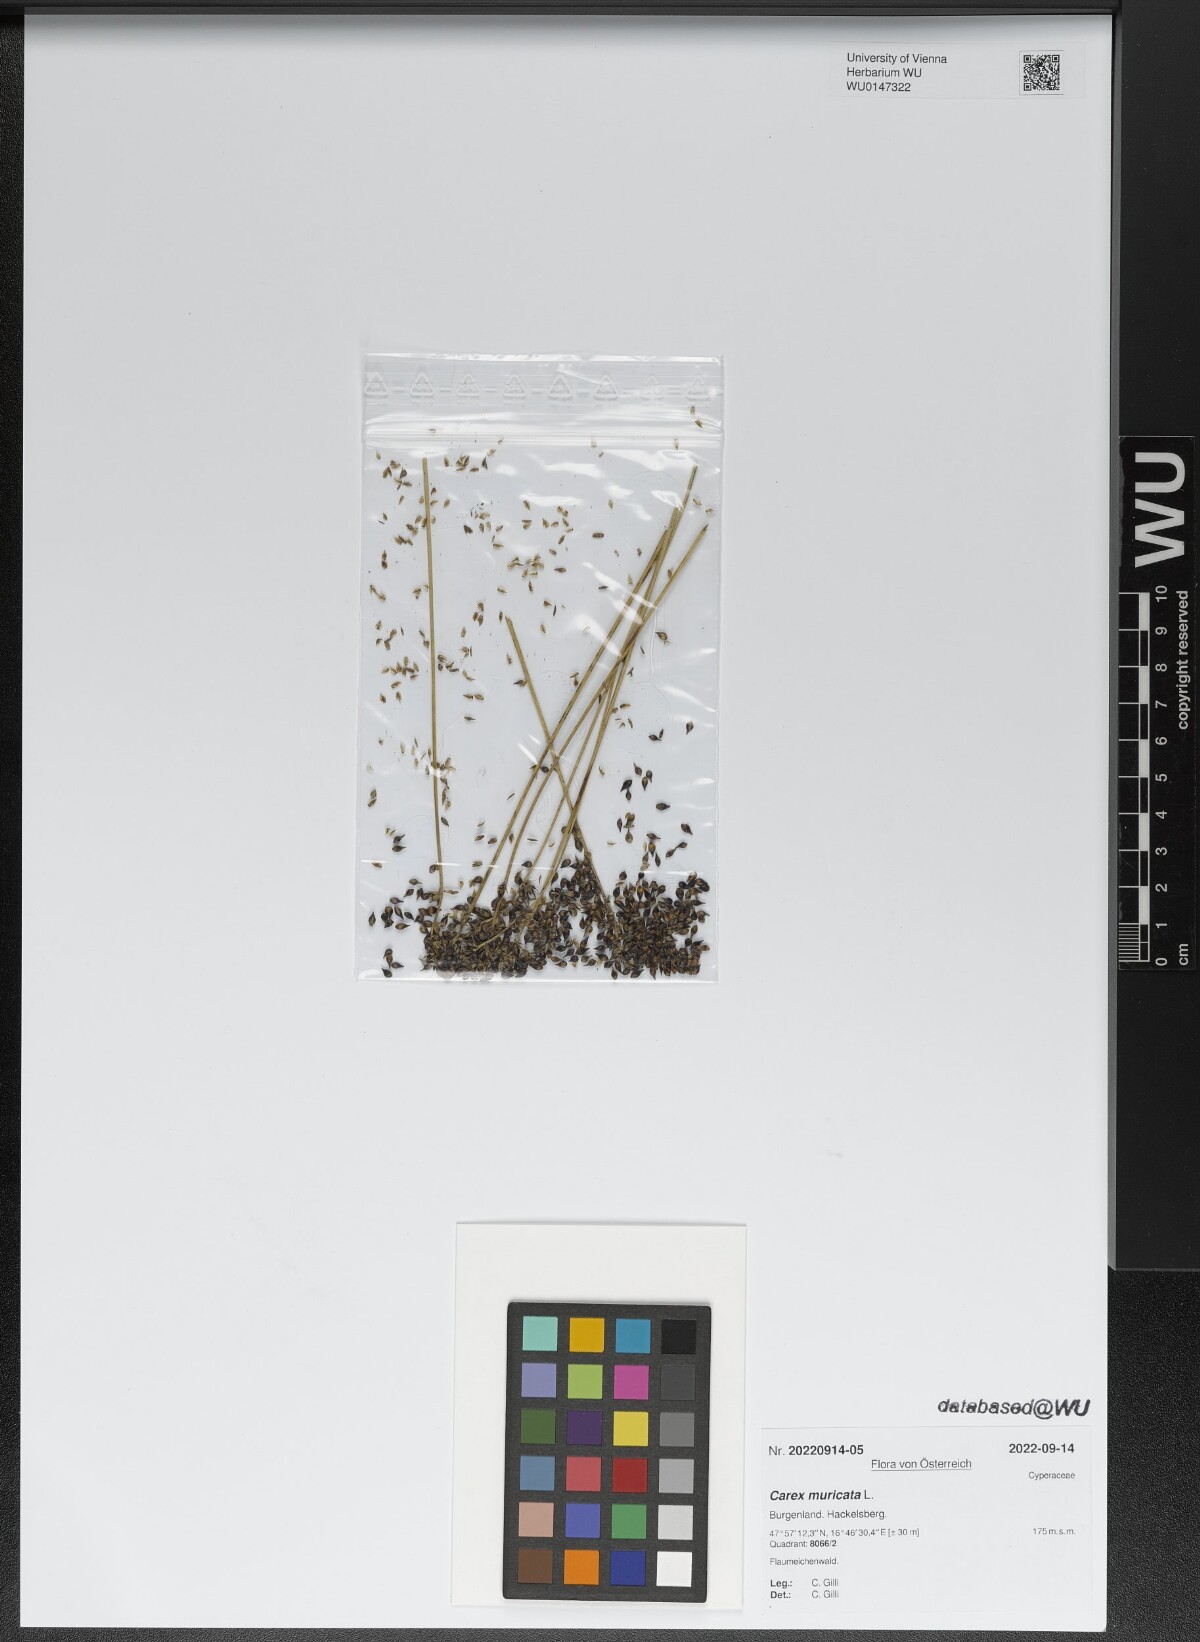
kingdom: Plantae
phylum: Tracheophyta
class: Liliopsida
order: Poales
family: Cyperaceae
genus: Carex
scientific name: Carex muricata
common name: Rough sedge
